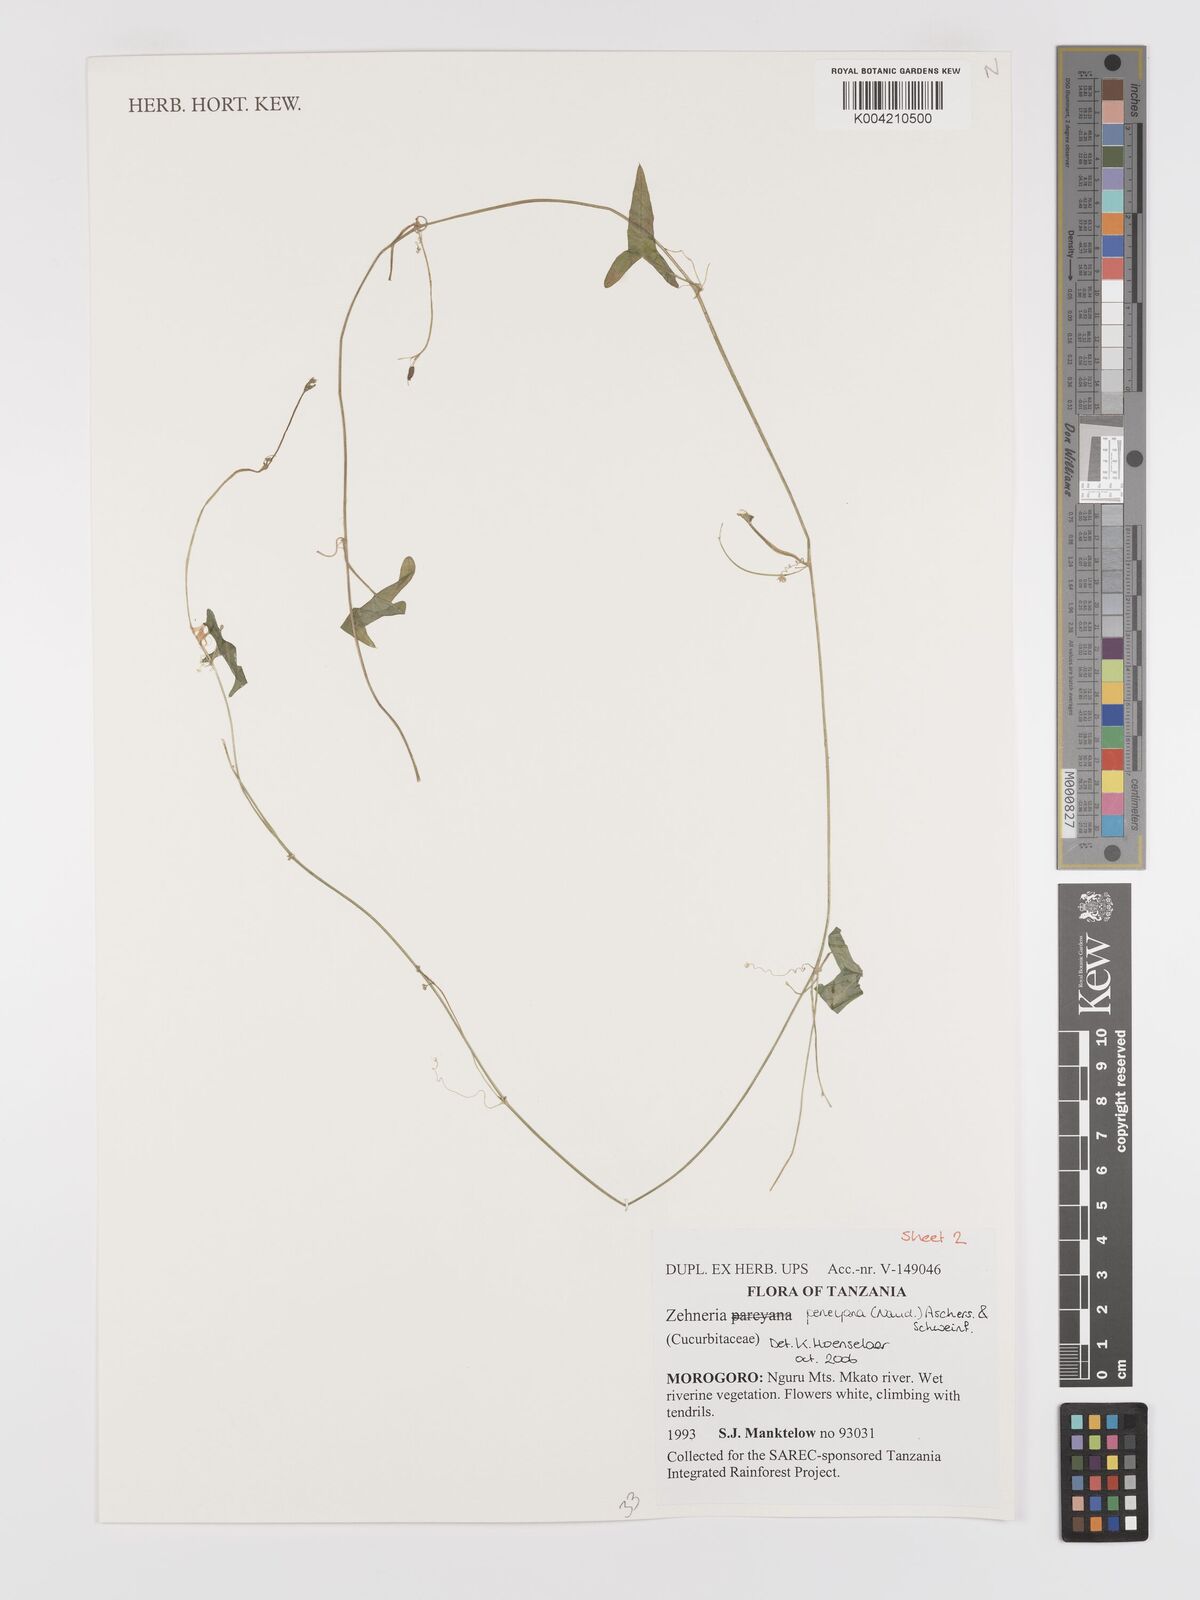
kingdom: Plantae
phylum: Tracheophyta
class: Magnoliopsida
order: Cucurbitales
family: Cucurbitaceae
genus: Zehneria
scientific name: Zehneria peneyana
